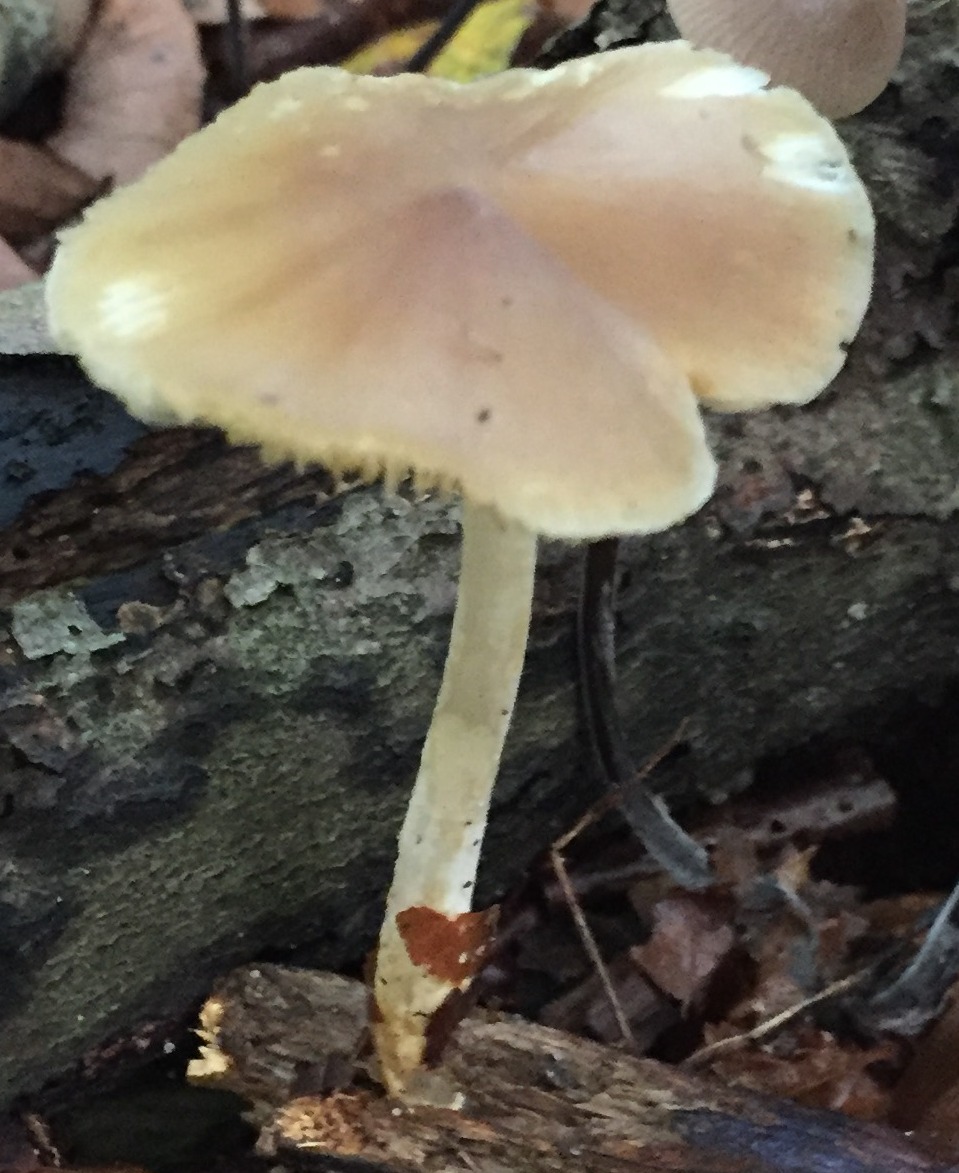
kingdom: Fungi
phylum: Basidiomycota
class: Agaricomycetes
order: Agaricales
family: Porotheleaceae
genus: Hydropodia
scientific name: Hydropodia subalpina
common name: vår-fnugfod
